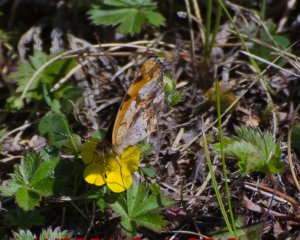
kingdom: Animalia
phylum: Arthropoda
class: Insecta
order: Lepidoptera
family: Nymphalidae
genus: Phyciodes
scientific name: Phyciodes tharos
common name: Pearl Crescent
